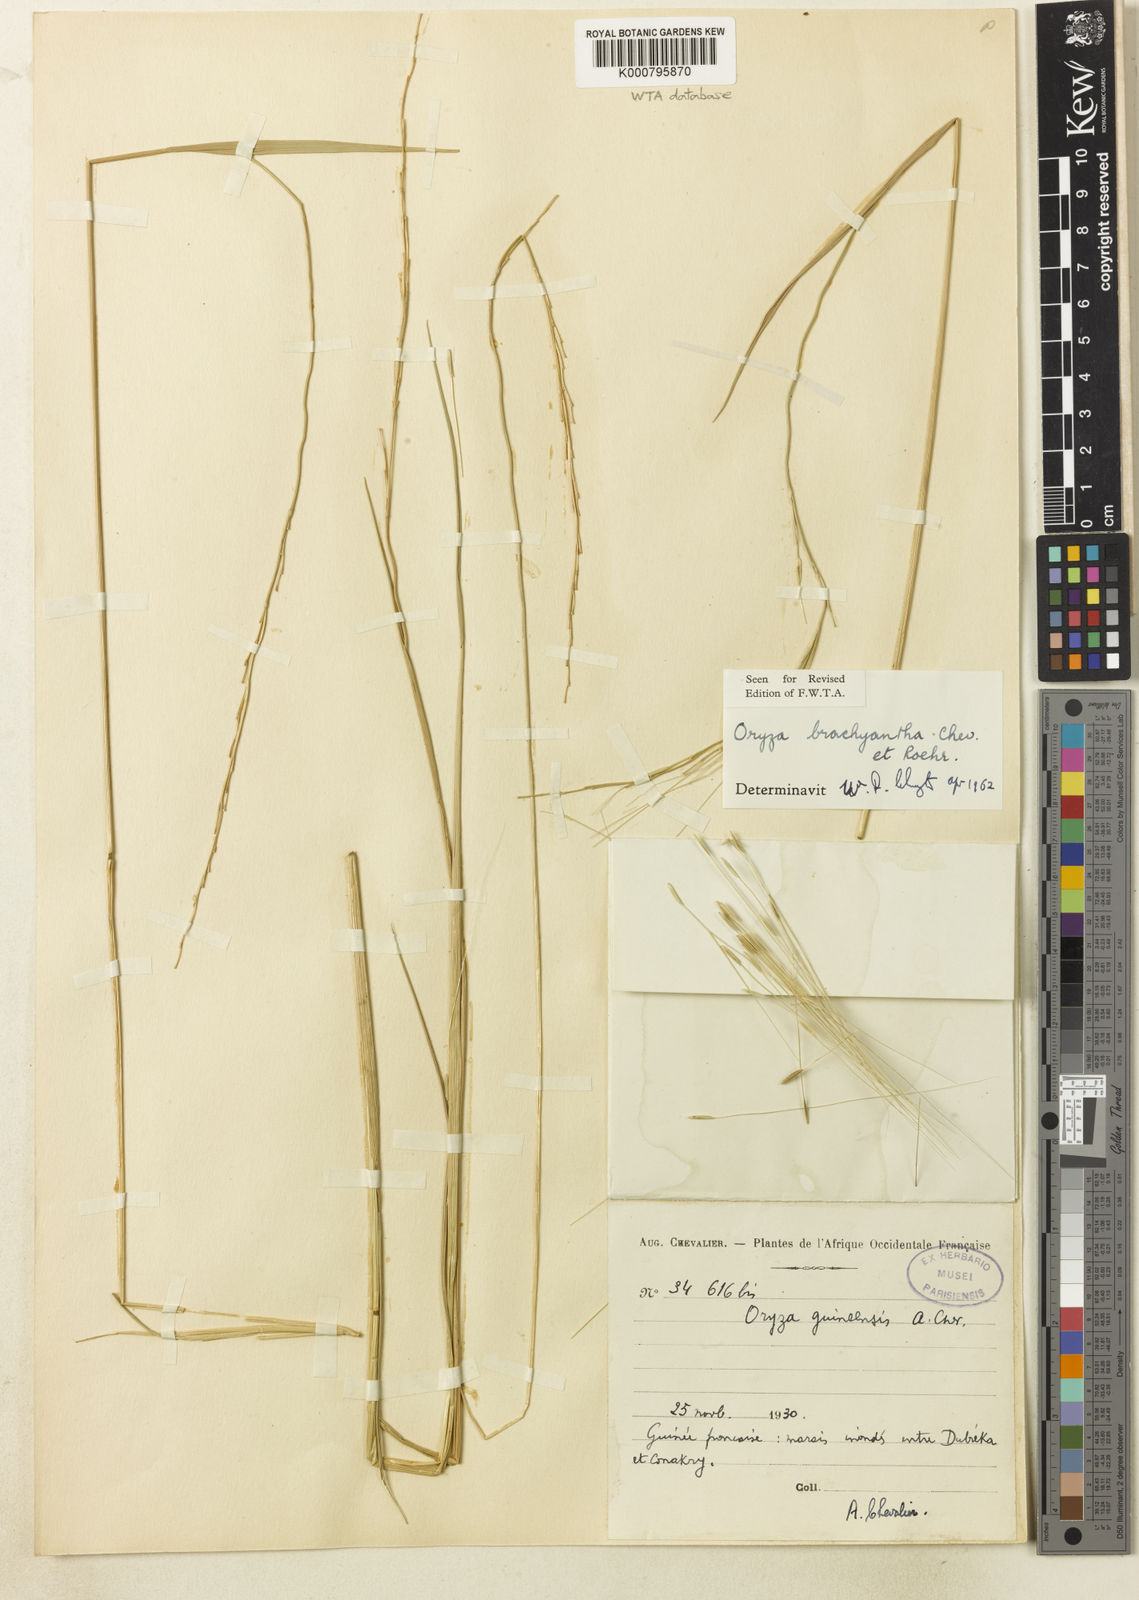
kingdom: Plantae
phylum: Tracheophyta
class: Liliopsida
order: Poales
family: Poaceae
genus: Oryza
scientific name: Oryza brachyantha
